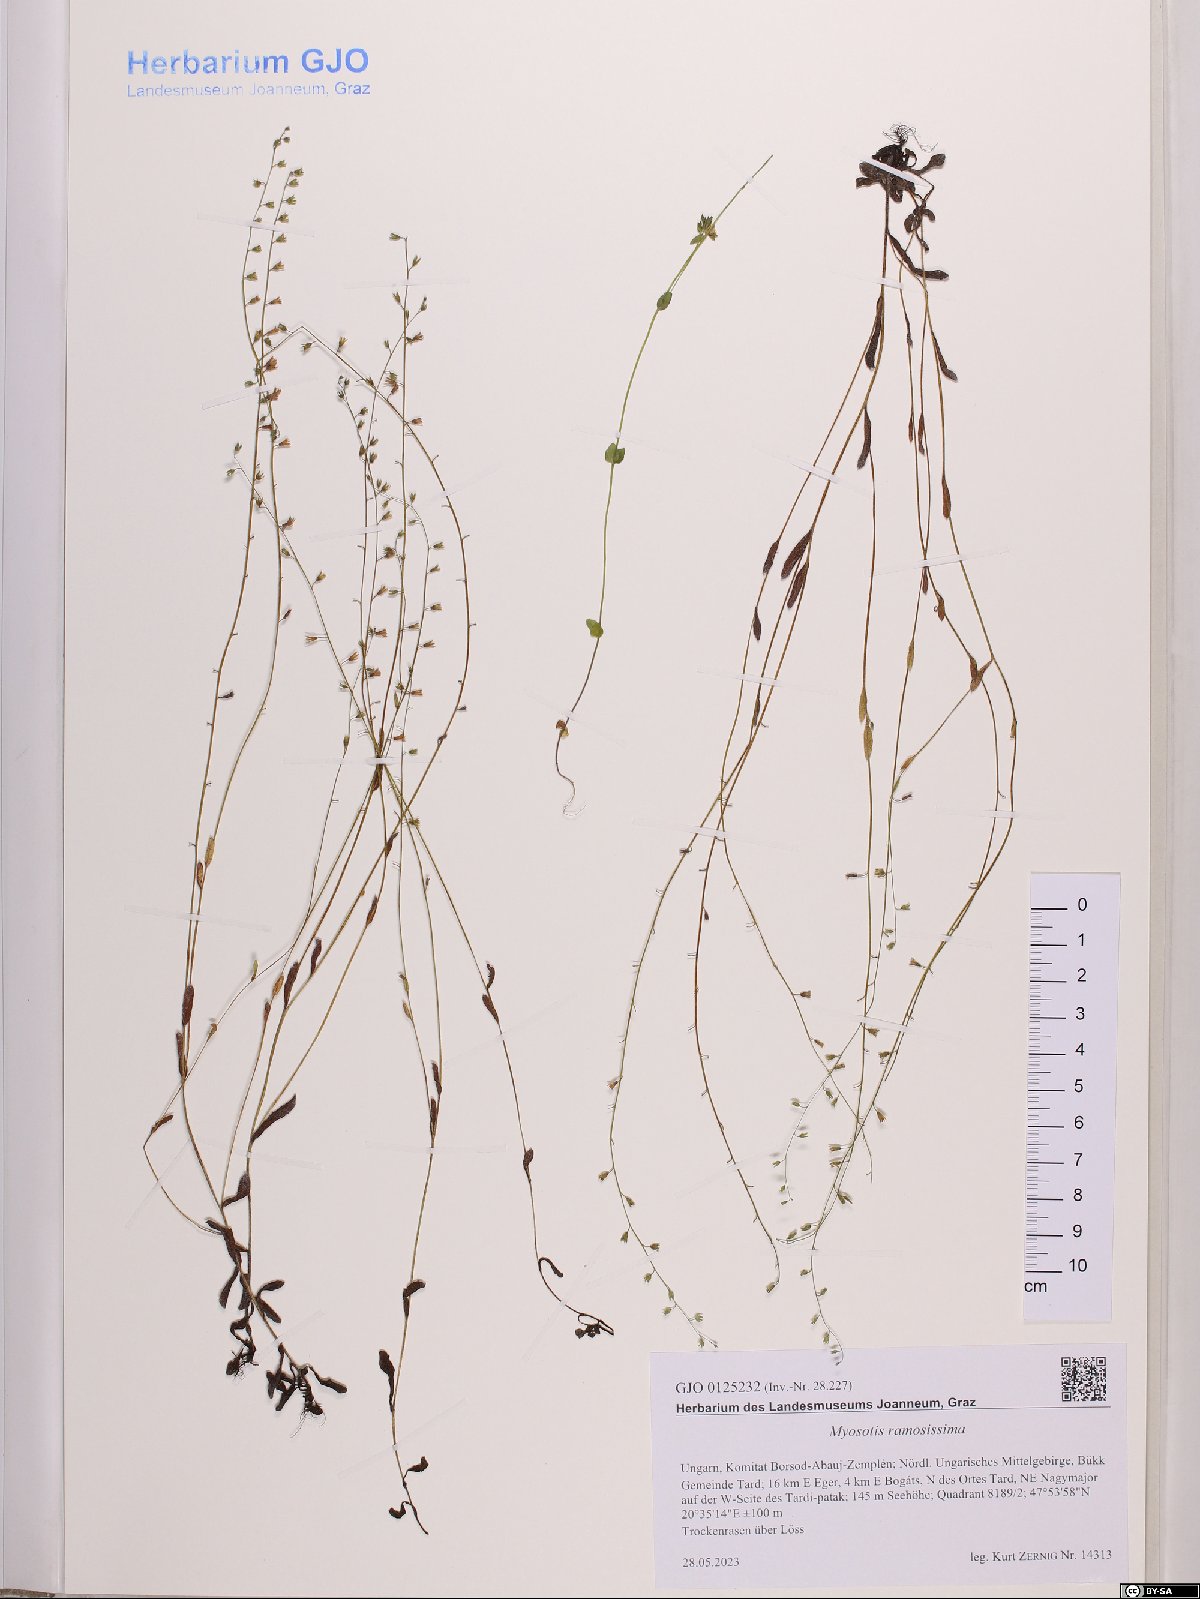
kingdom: Plantae
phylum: Tracheophyta
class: Magnoliopsida
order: Boraginales
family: Boraginaceae
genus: Myosotis
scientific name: Myosotis ramosissima
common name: Early forget-me-not
